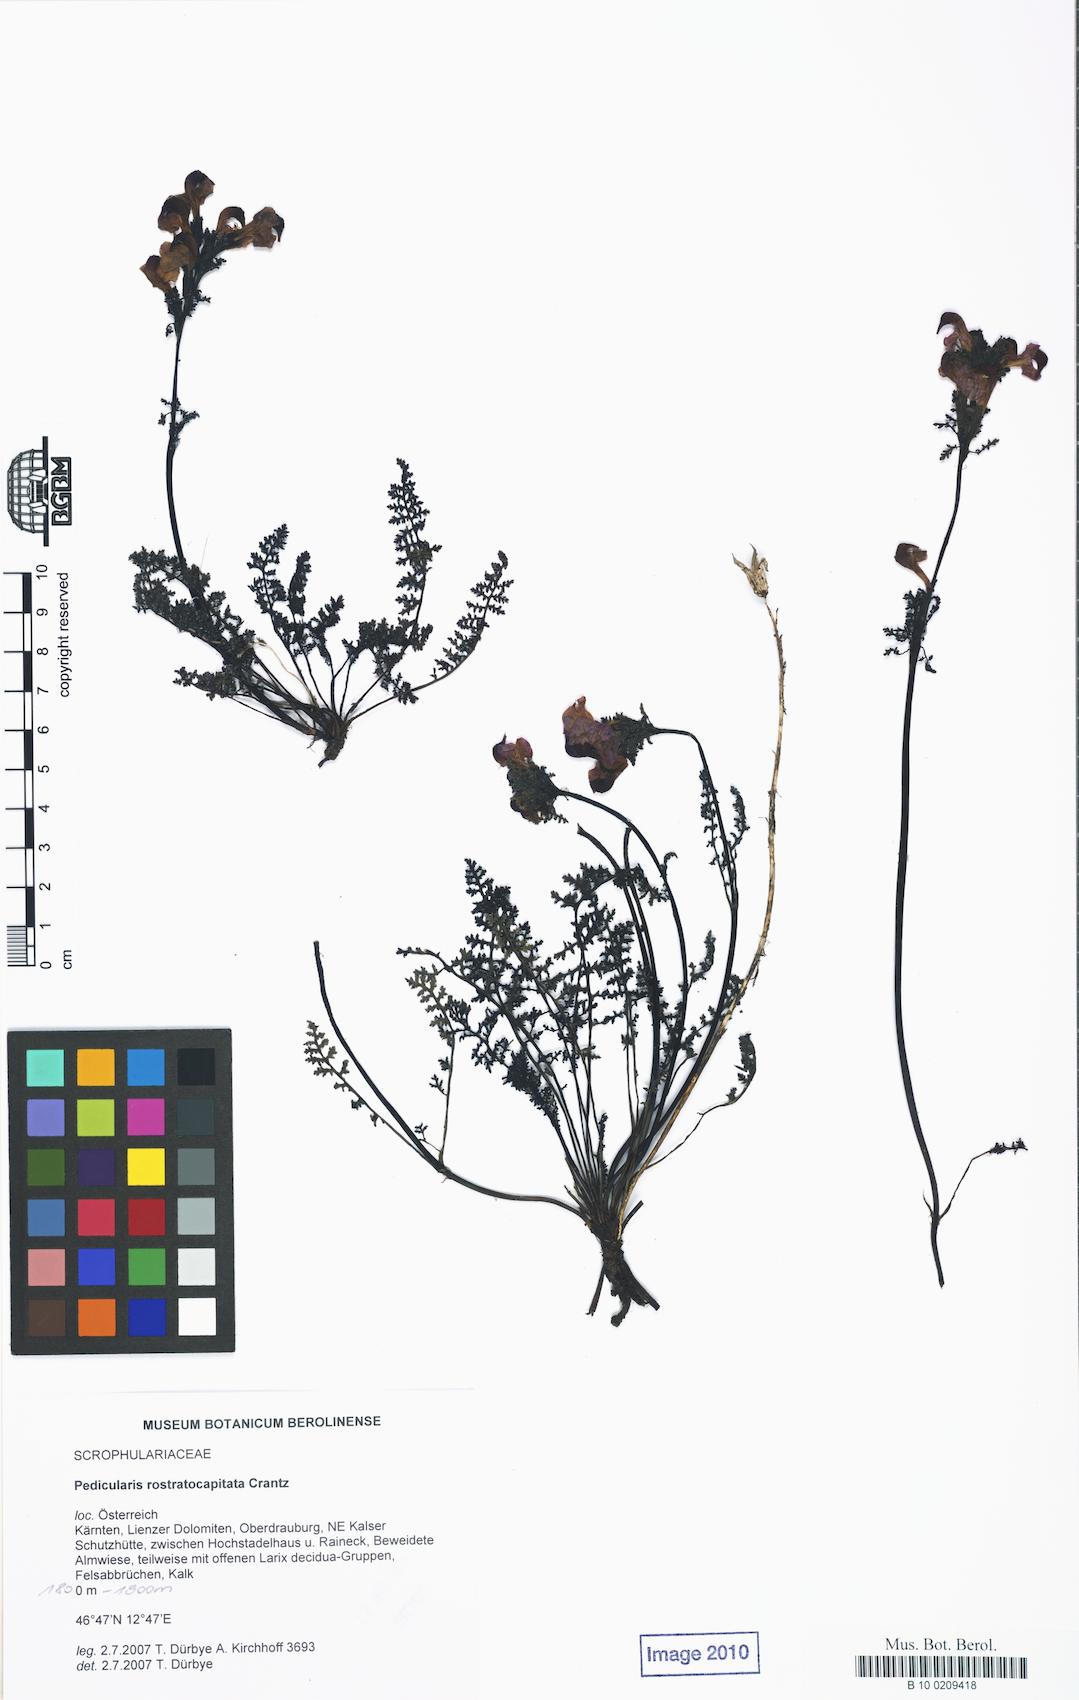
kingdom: Plantae
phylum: Tracheophyta
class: Magnoliopsida
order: Lamiales
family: Orobanchaceae
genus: Pedicularis
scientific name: Pedicularis rostratocapitata
